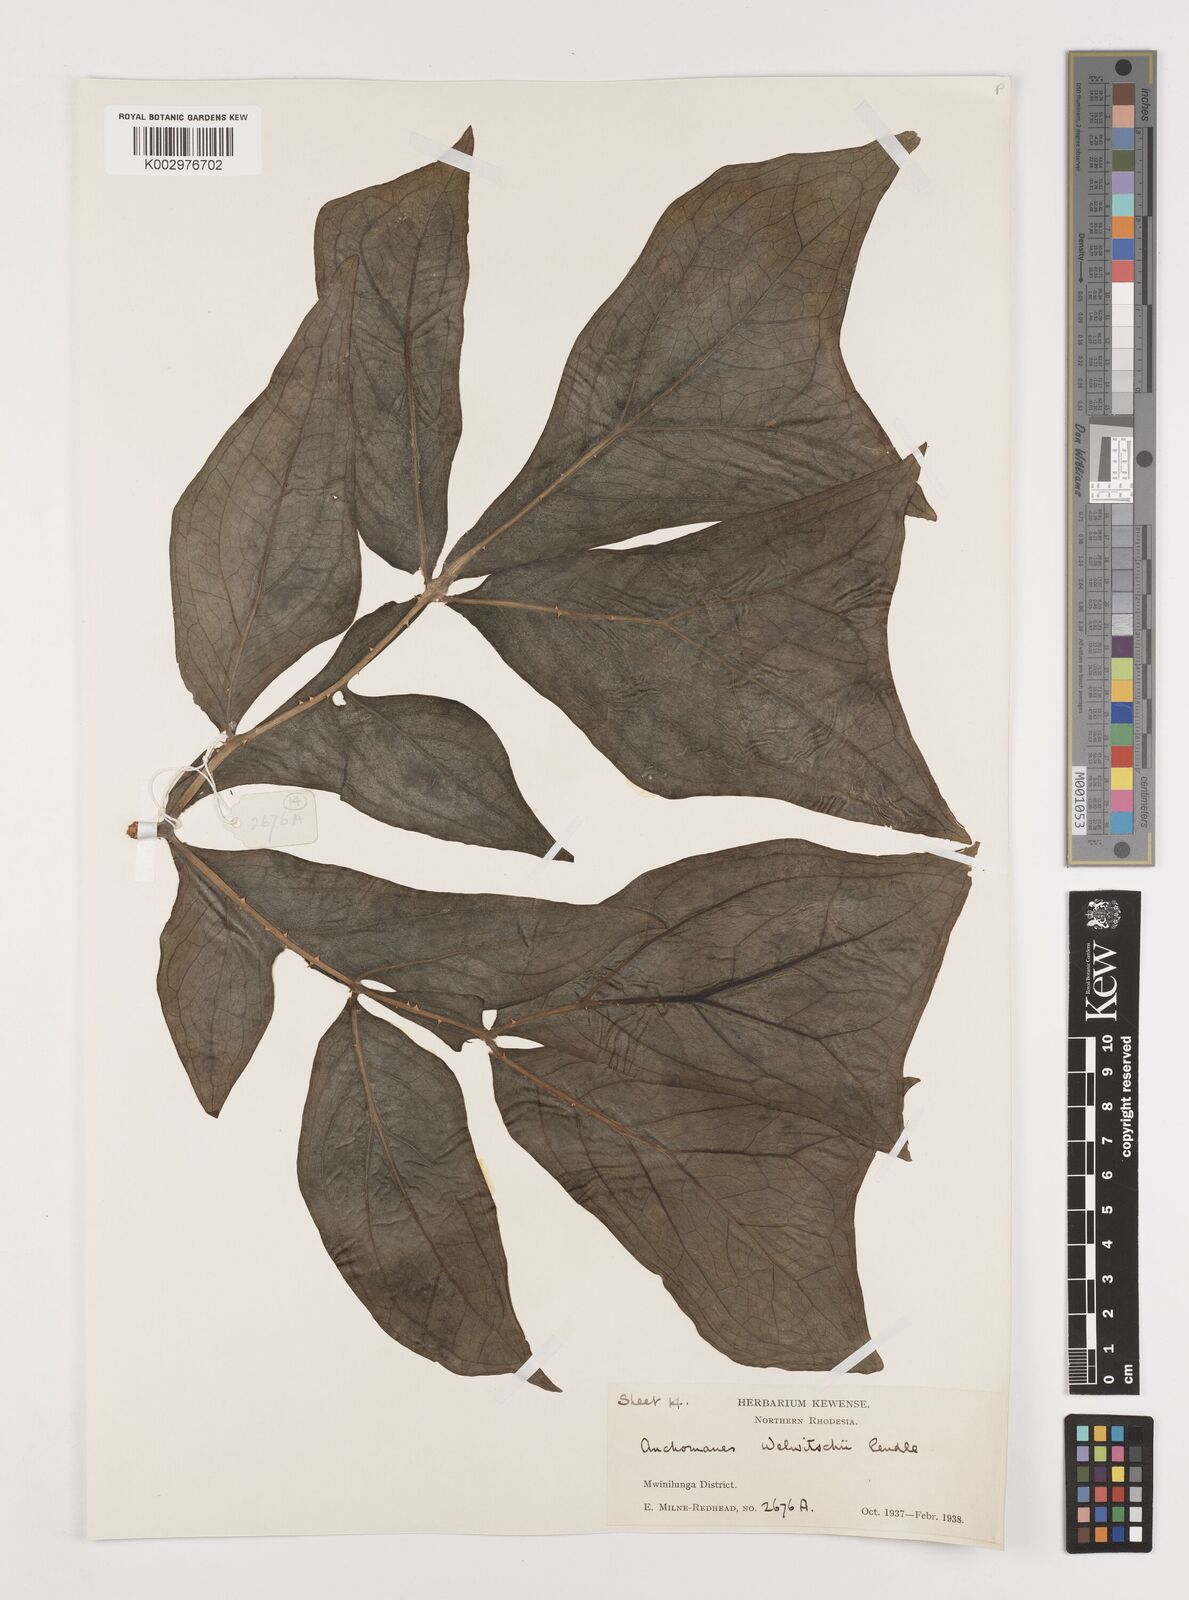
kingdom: Plantae
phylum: Tracheophyta
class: Liliopsida
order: Alismatales
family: Araceae
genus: Anchomanes
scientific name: Anchomanes difformis
